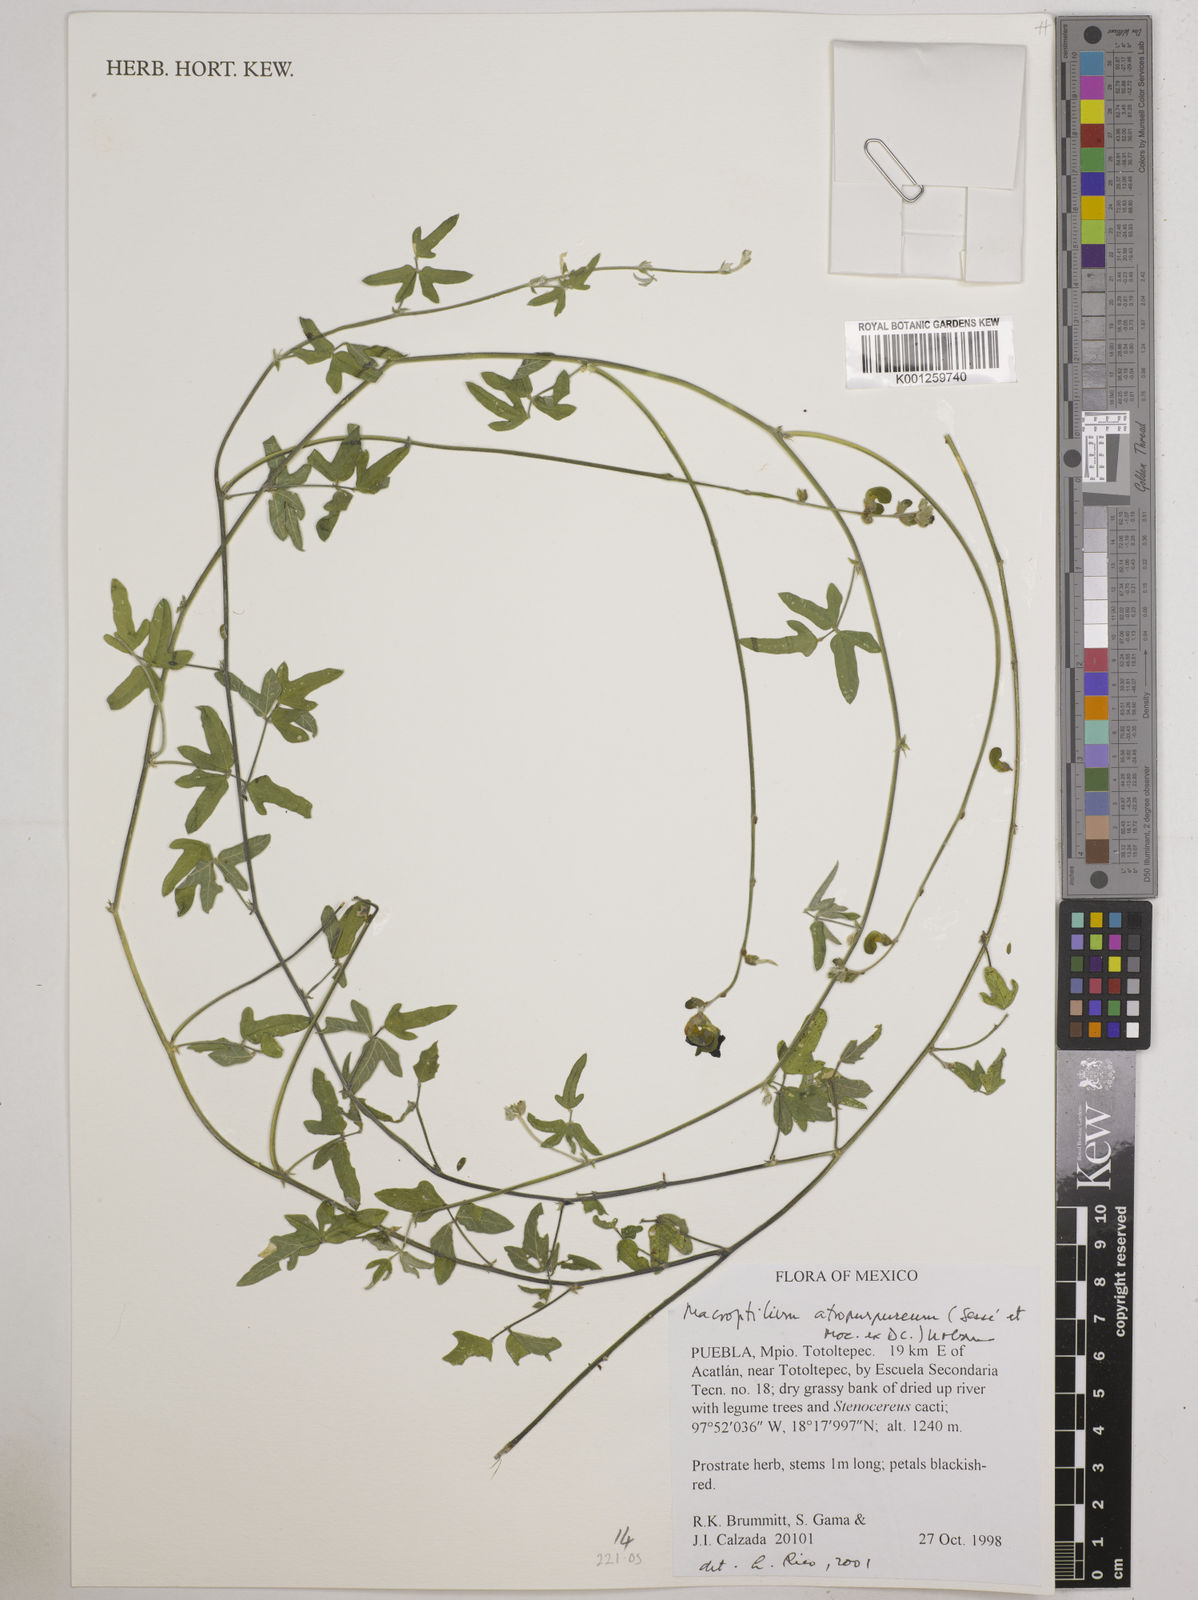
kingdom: Plantae
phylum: Tracheophyta
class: Magnoliopsida
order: Fabales
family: Fabaceae
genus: Macroptilium
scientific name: Macroptilium atropurpureum
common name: Purple bushbean
